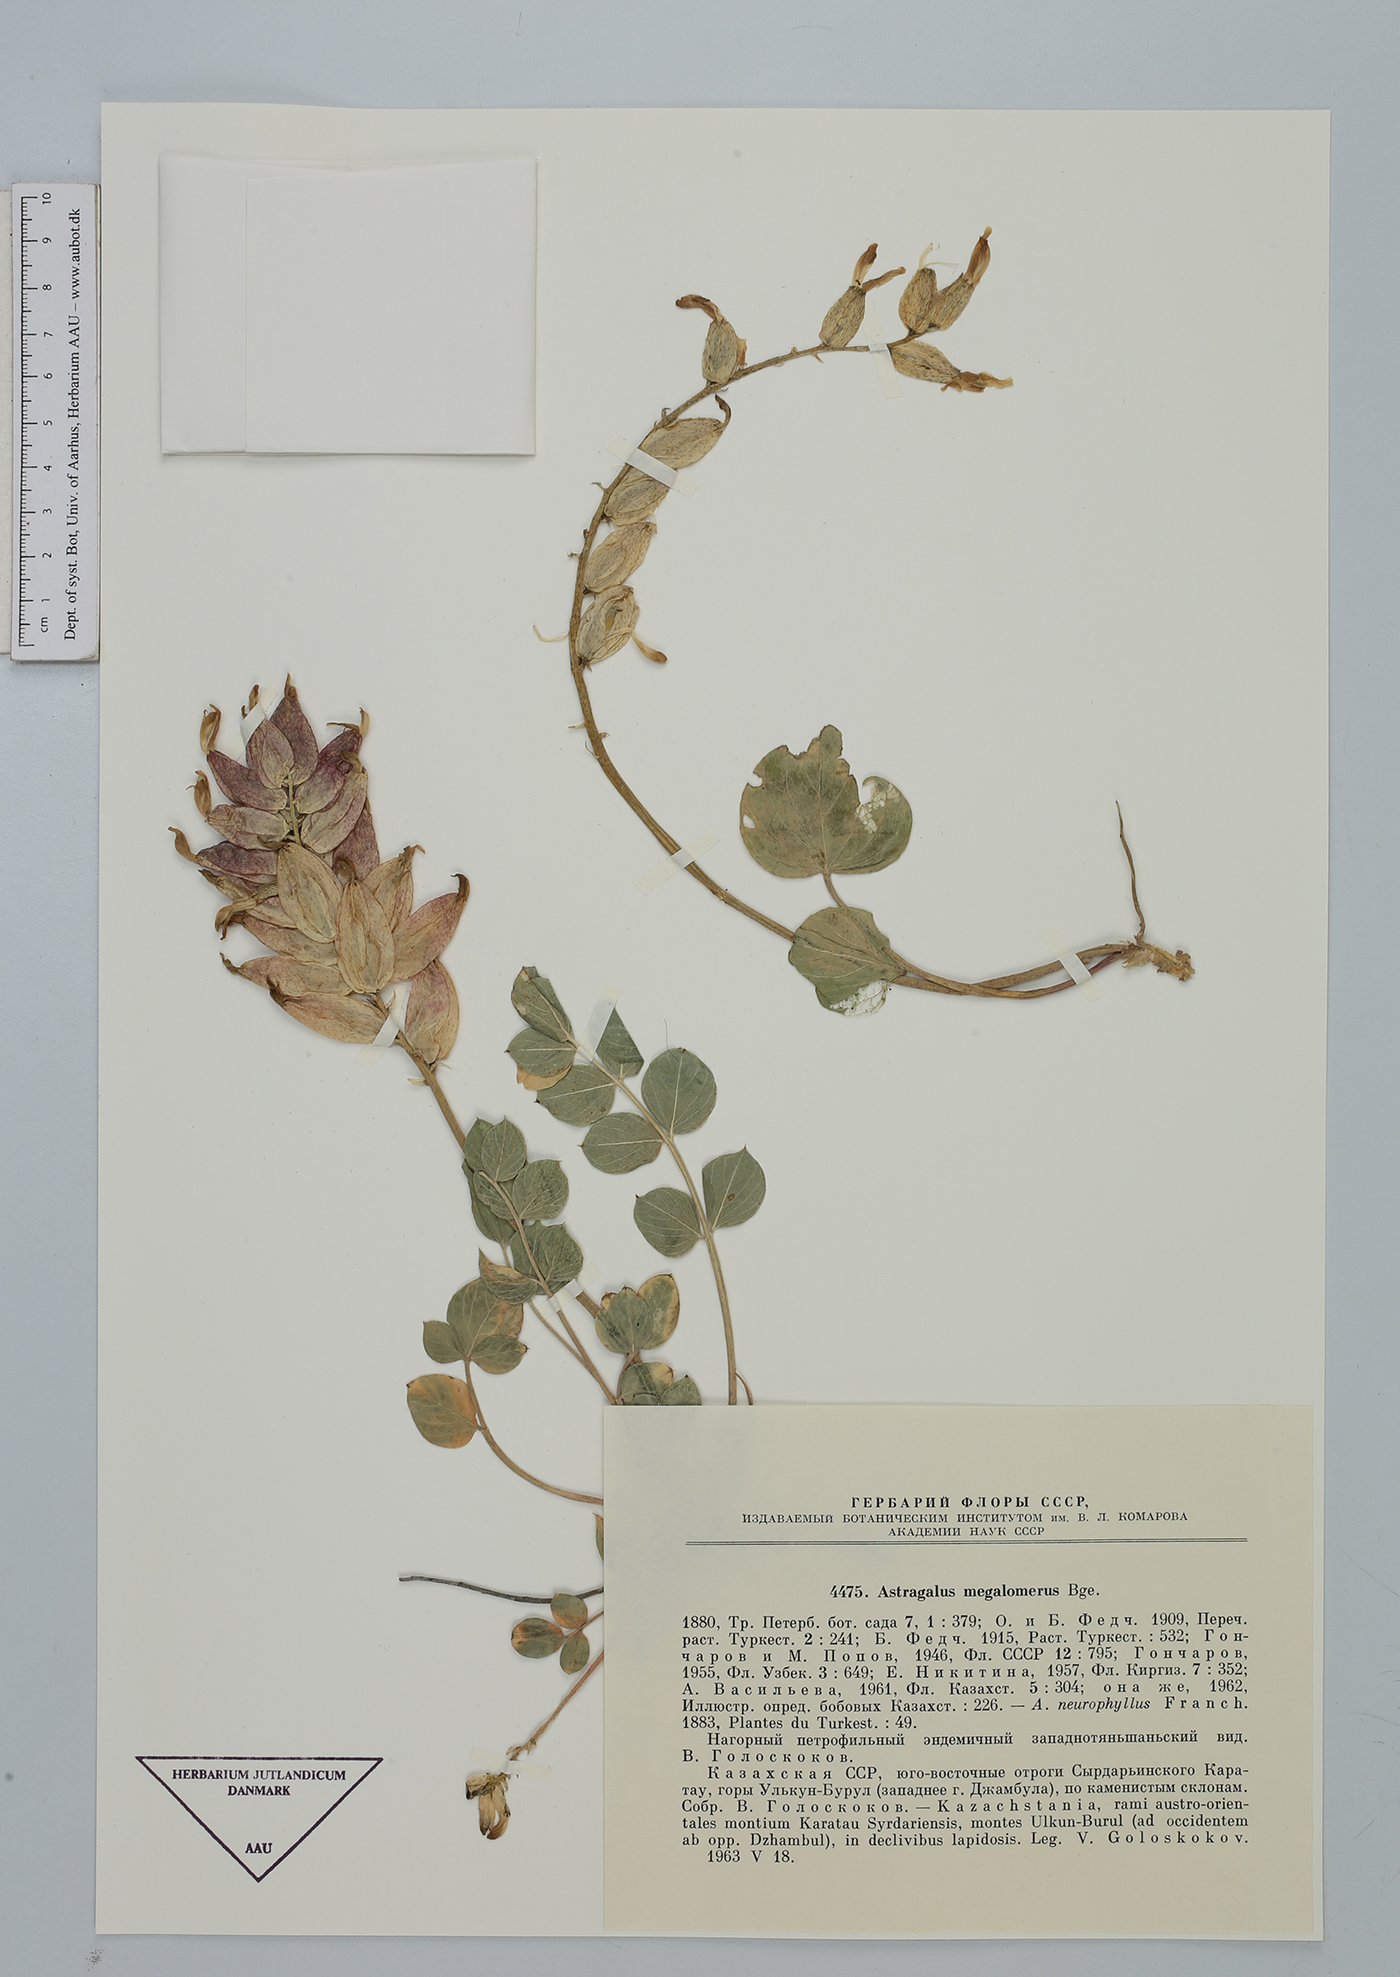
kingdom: Plantae
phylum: Tracheophyta
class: Magnoliopsida
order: Fabales
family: Fabaceae
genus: Astragalus
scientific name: Astragalus megalomerus
